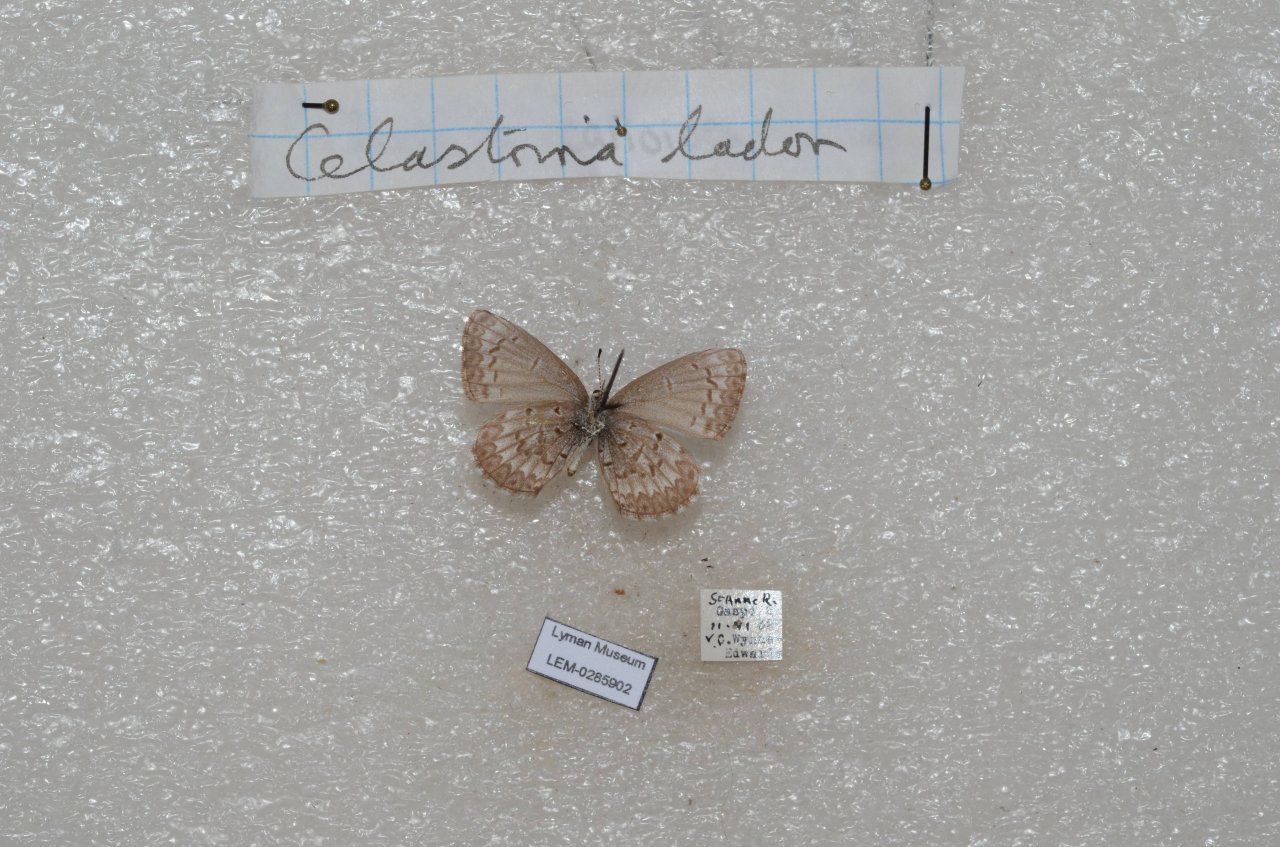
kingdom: Animalia
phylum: Arthropoda
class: Insecta
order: Lepidoptera
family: Lycaenidae
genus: Celastrina
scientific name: Celastrina lucia
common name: Northern Spring Azure
